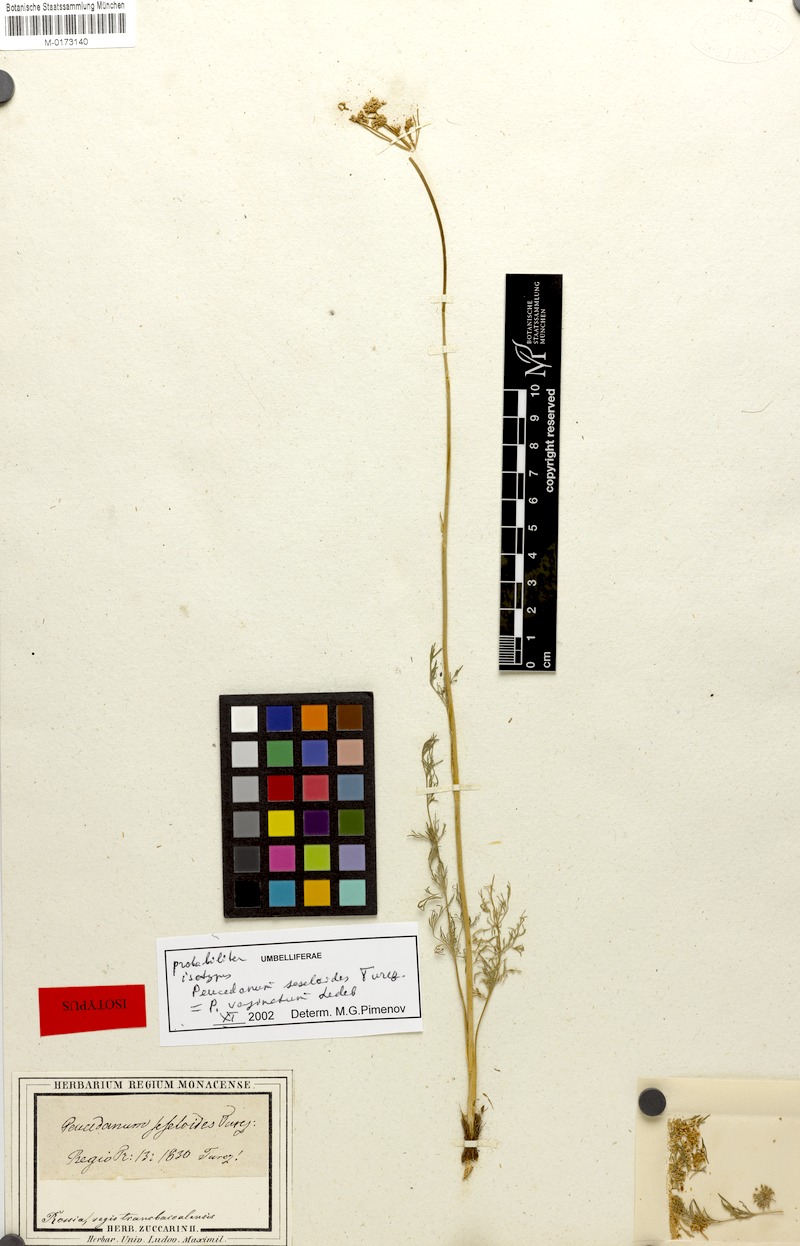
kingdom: Plantae
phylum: Tracheophyta
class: Magnoliopsida
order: Apiales
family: Apiaceae
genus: Peucedanum
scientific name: Peucedanum vaginatum
